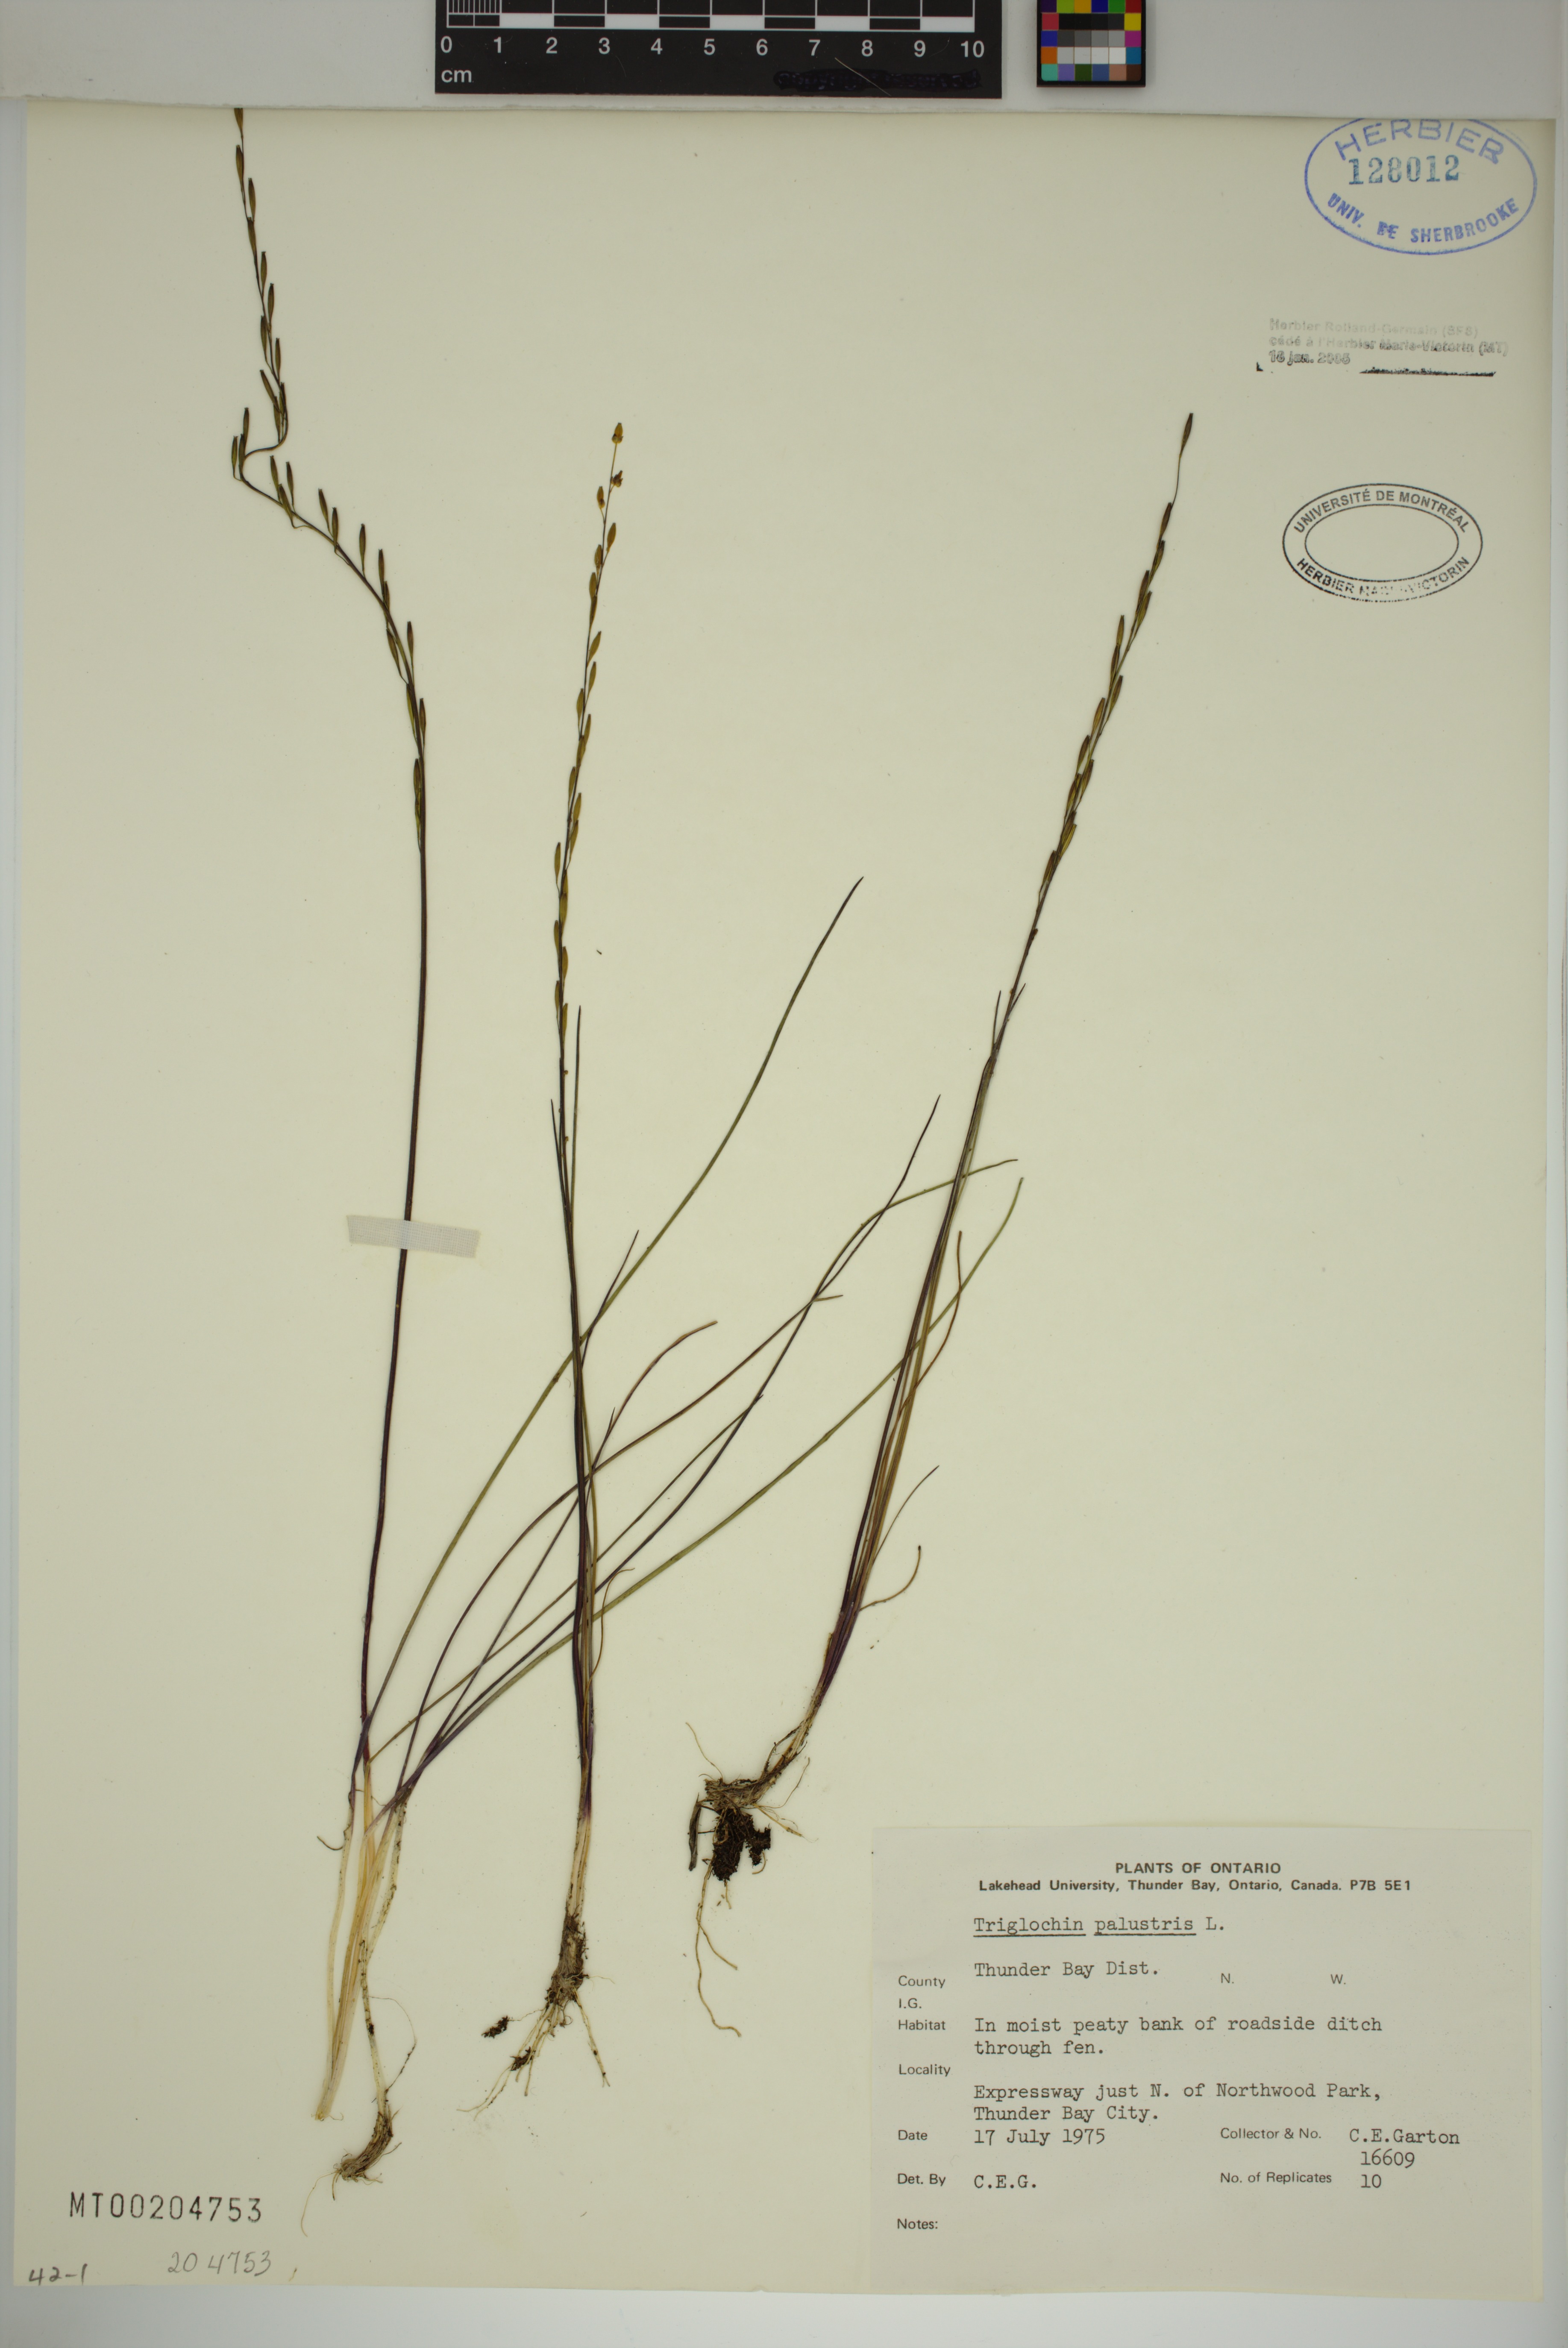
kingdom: Plantae
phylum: Tracheophyta
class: Liliopsida
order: Alismatales
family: Juncaginaceae
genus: Triglochin
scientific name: Triglochin palustris
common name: Marsh arrowgrass
